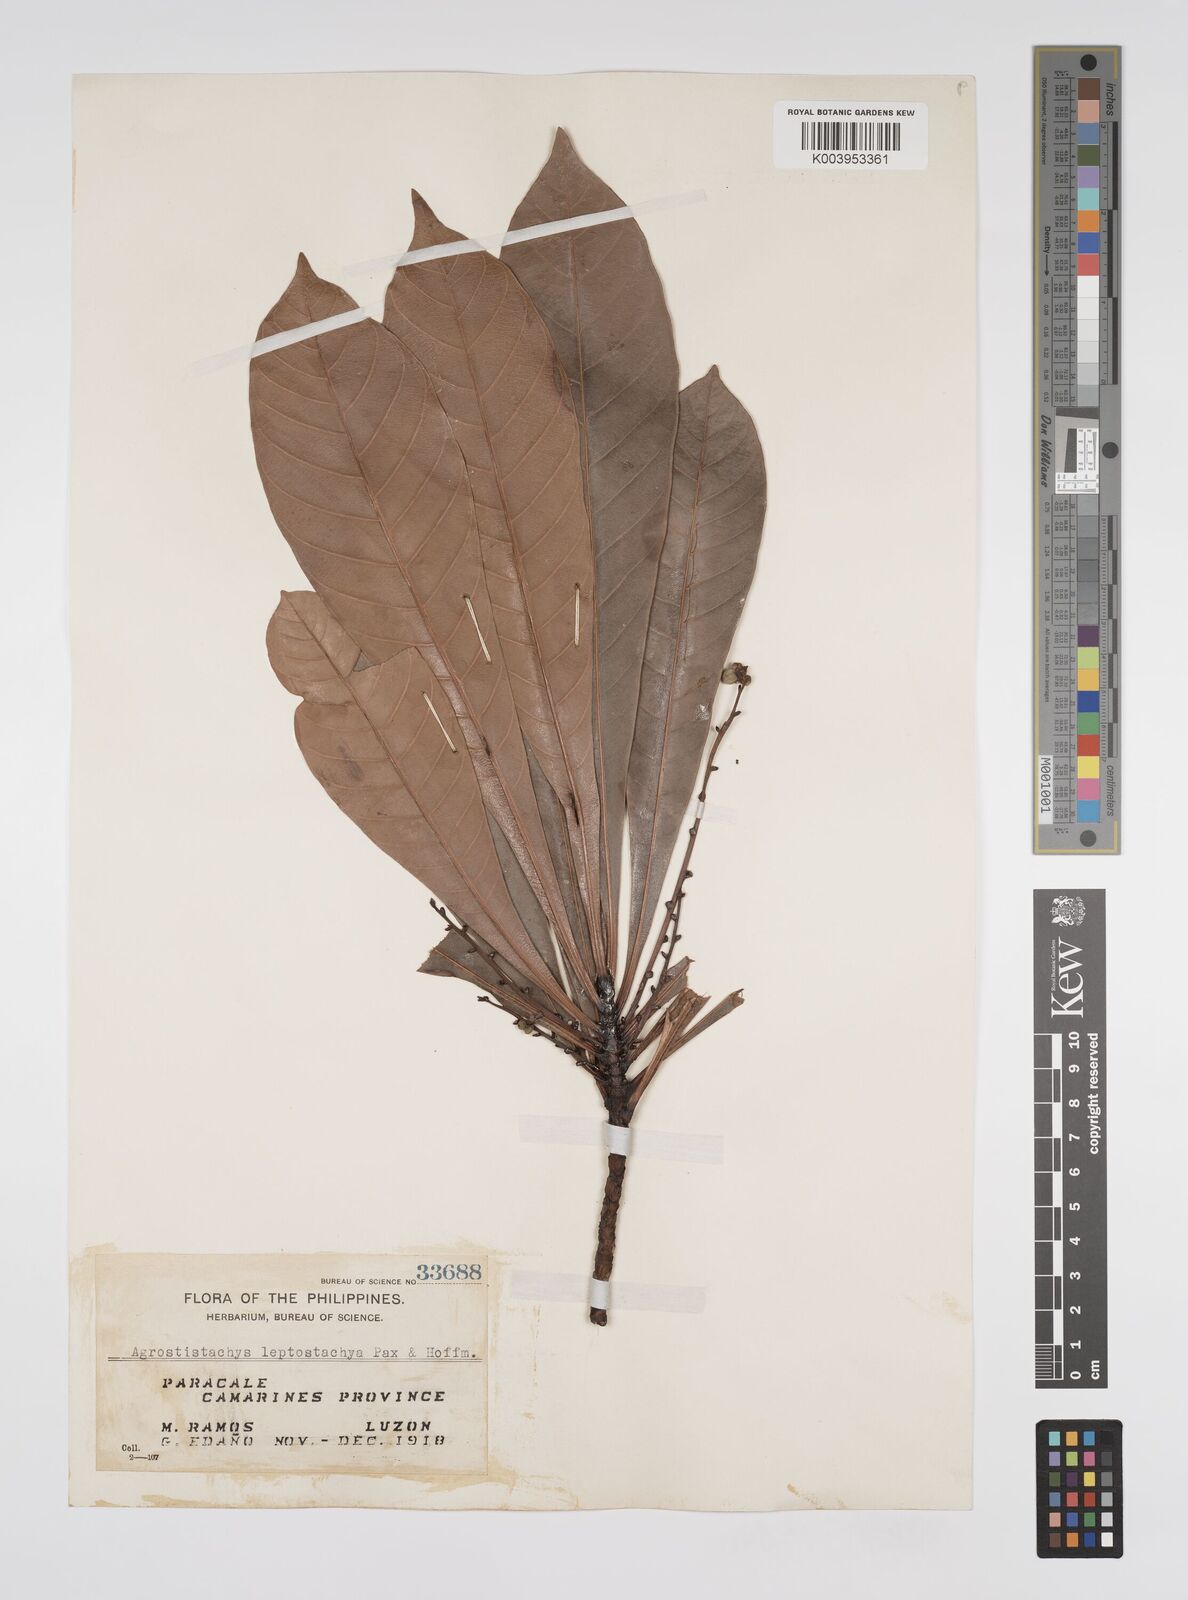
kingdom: Plantae
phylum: Tracheophyta
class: Magnoliopsida
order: Malpighiales
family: Euphorbiaceae
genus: Agrostistachys
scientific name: Agrostistachys borneensis
